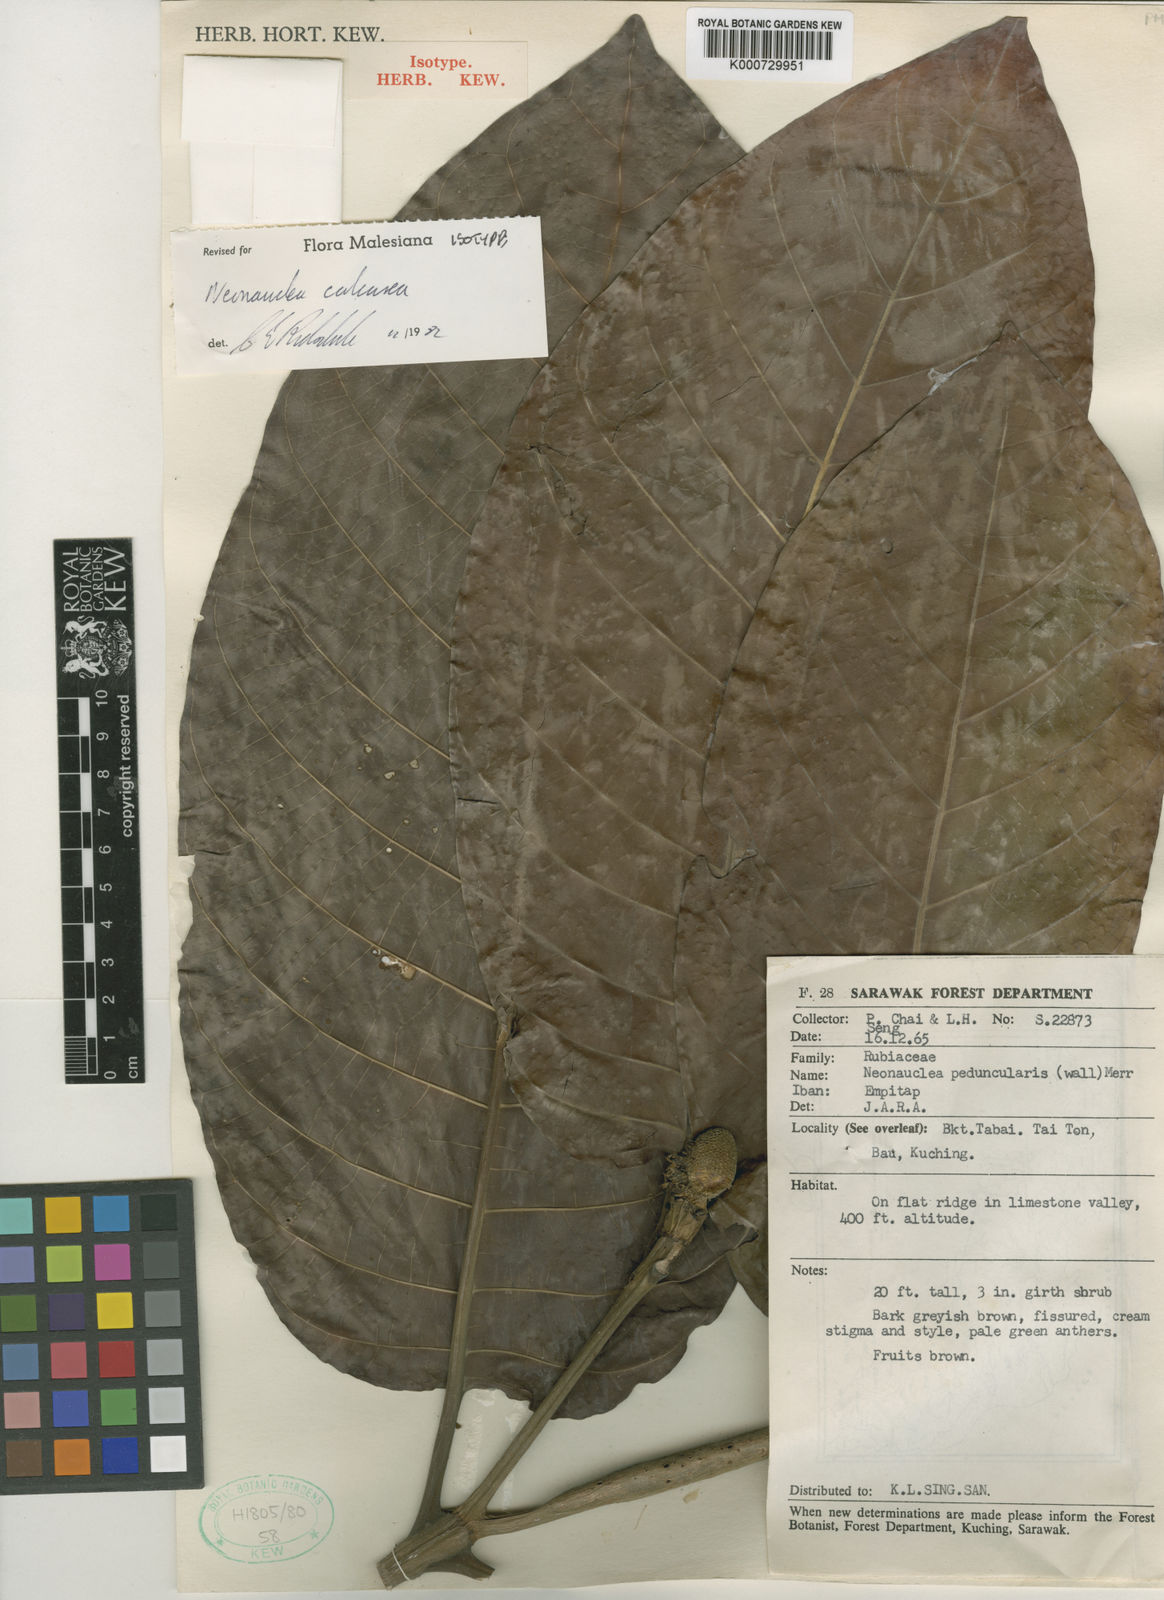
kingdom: Plantae
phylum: Tracheophyta
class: Magnoliopsida
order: Gentianales
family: Rubiaceae
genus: Neonauclea
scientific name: Neonauclea calcarea
